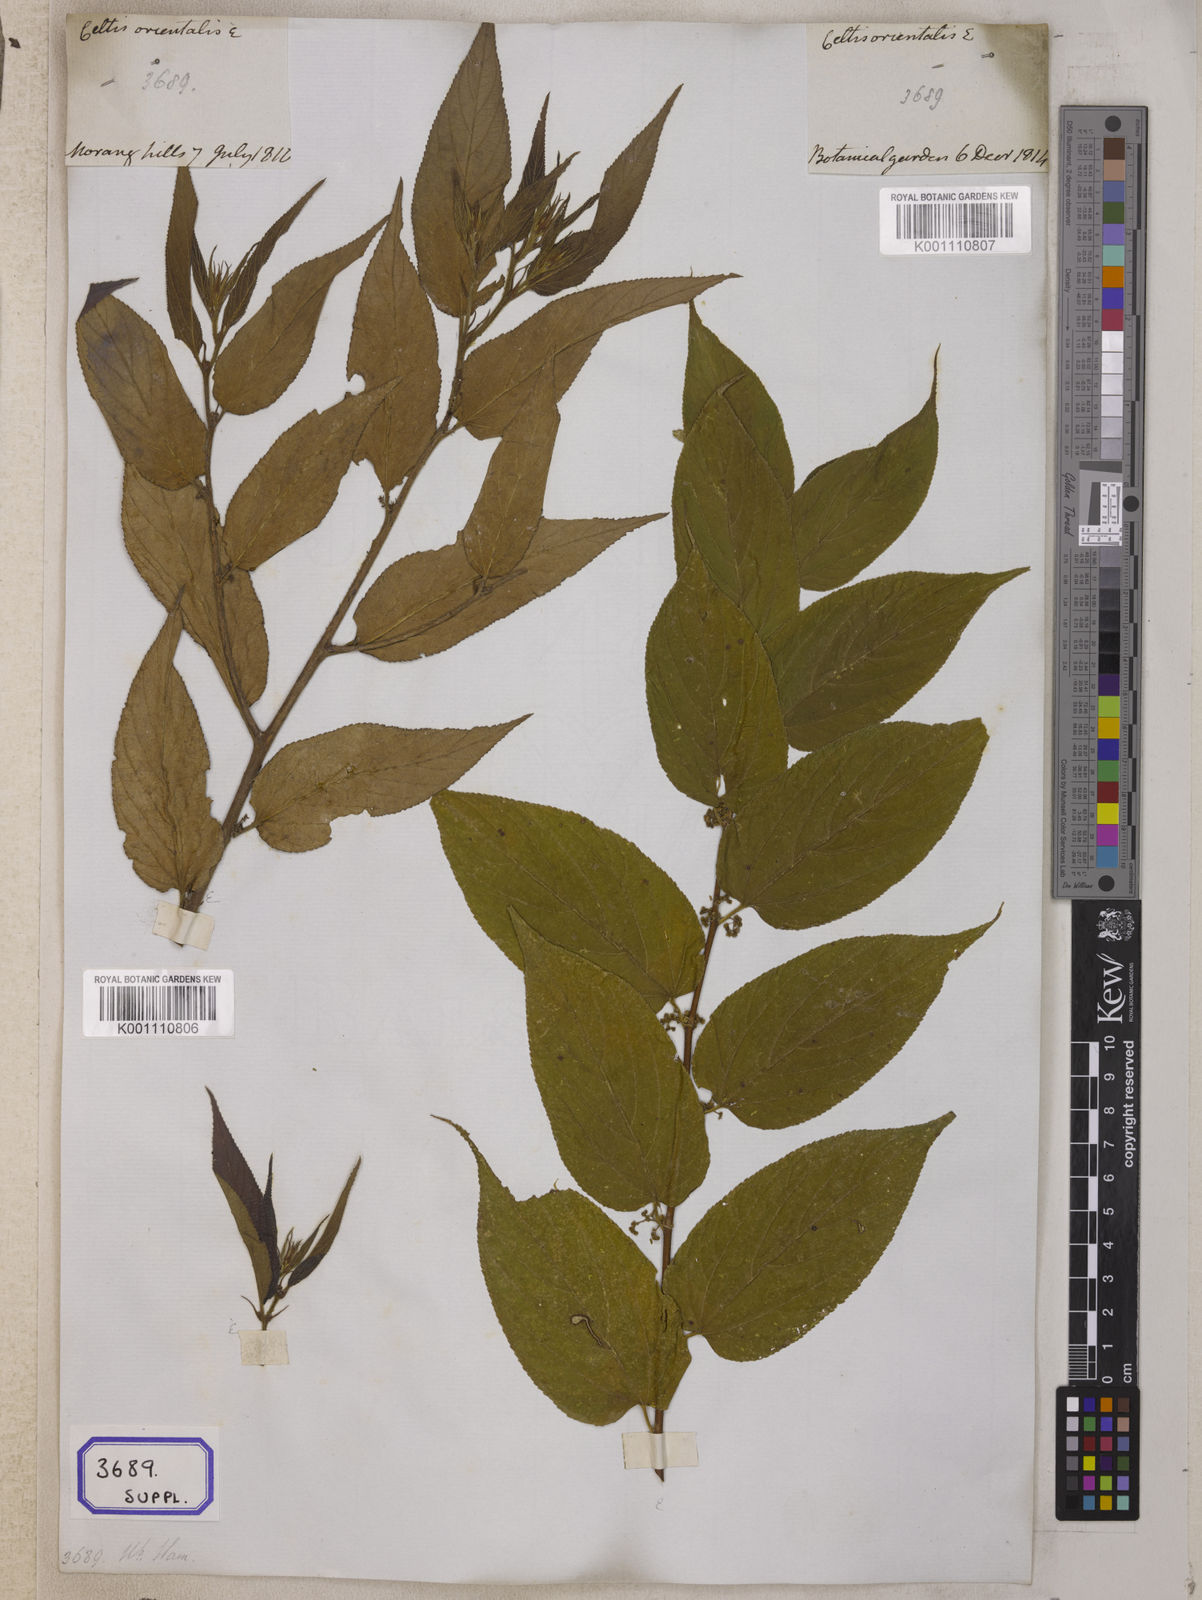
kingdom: Plantae
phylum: Tracheophyta
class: Magnoliopsida
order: Rosales
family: Cannabaceae
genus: Trema
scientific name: Trema orientale
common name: Indian charcoal tree
